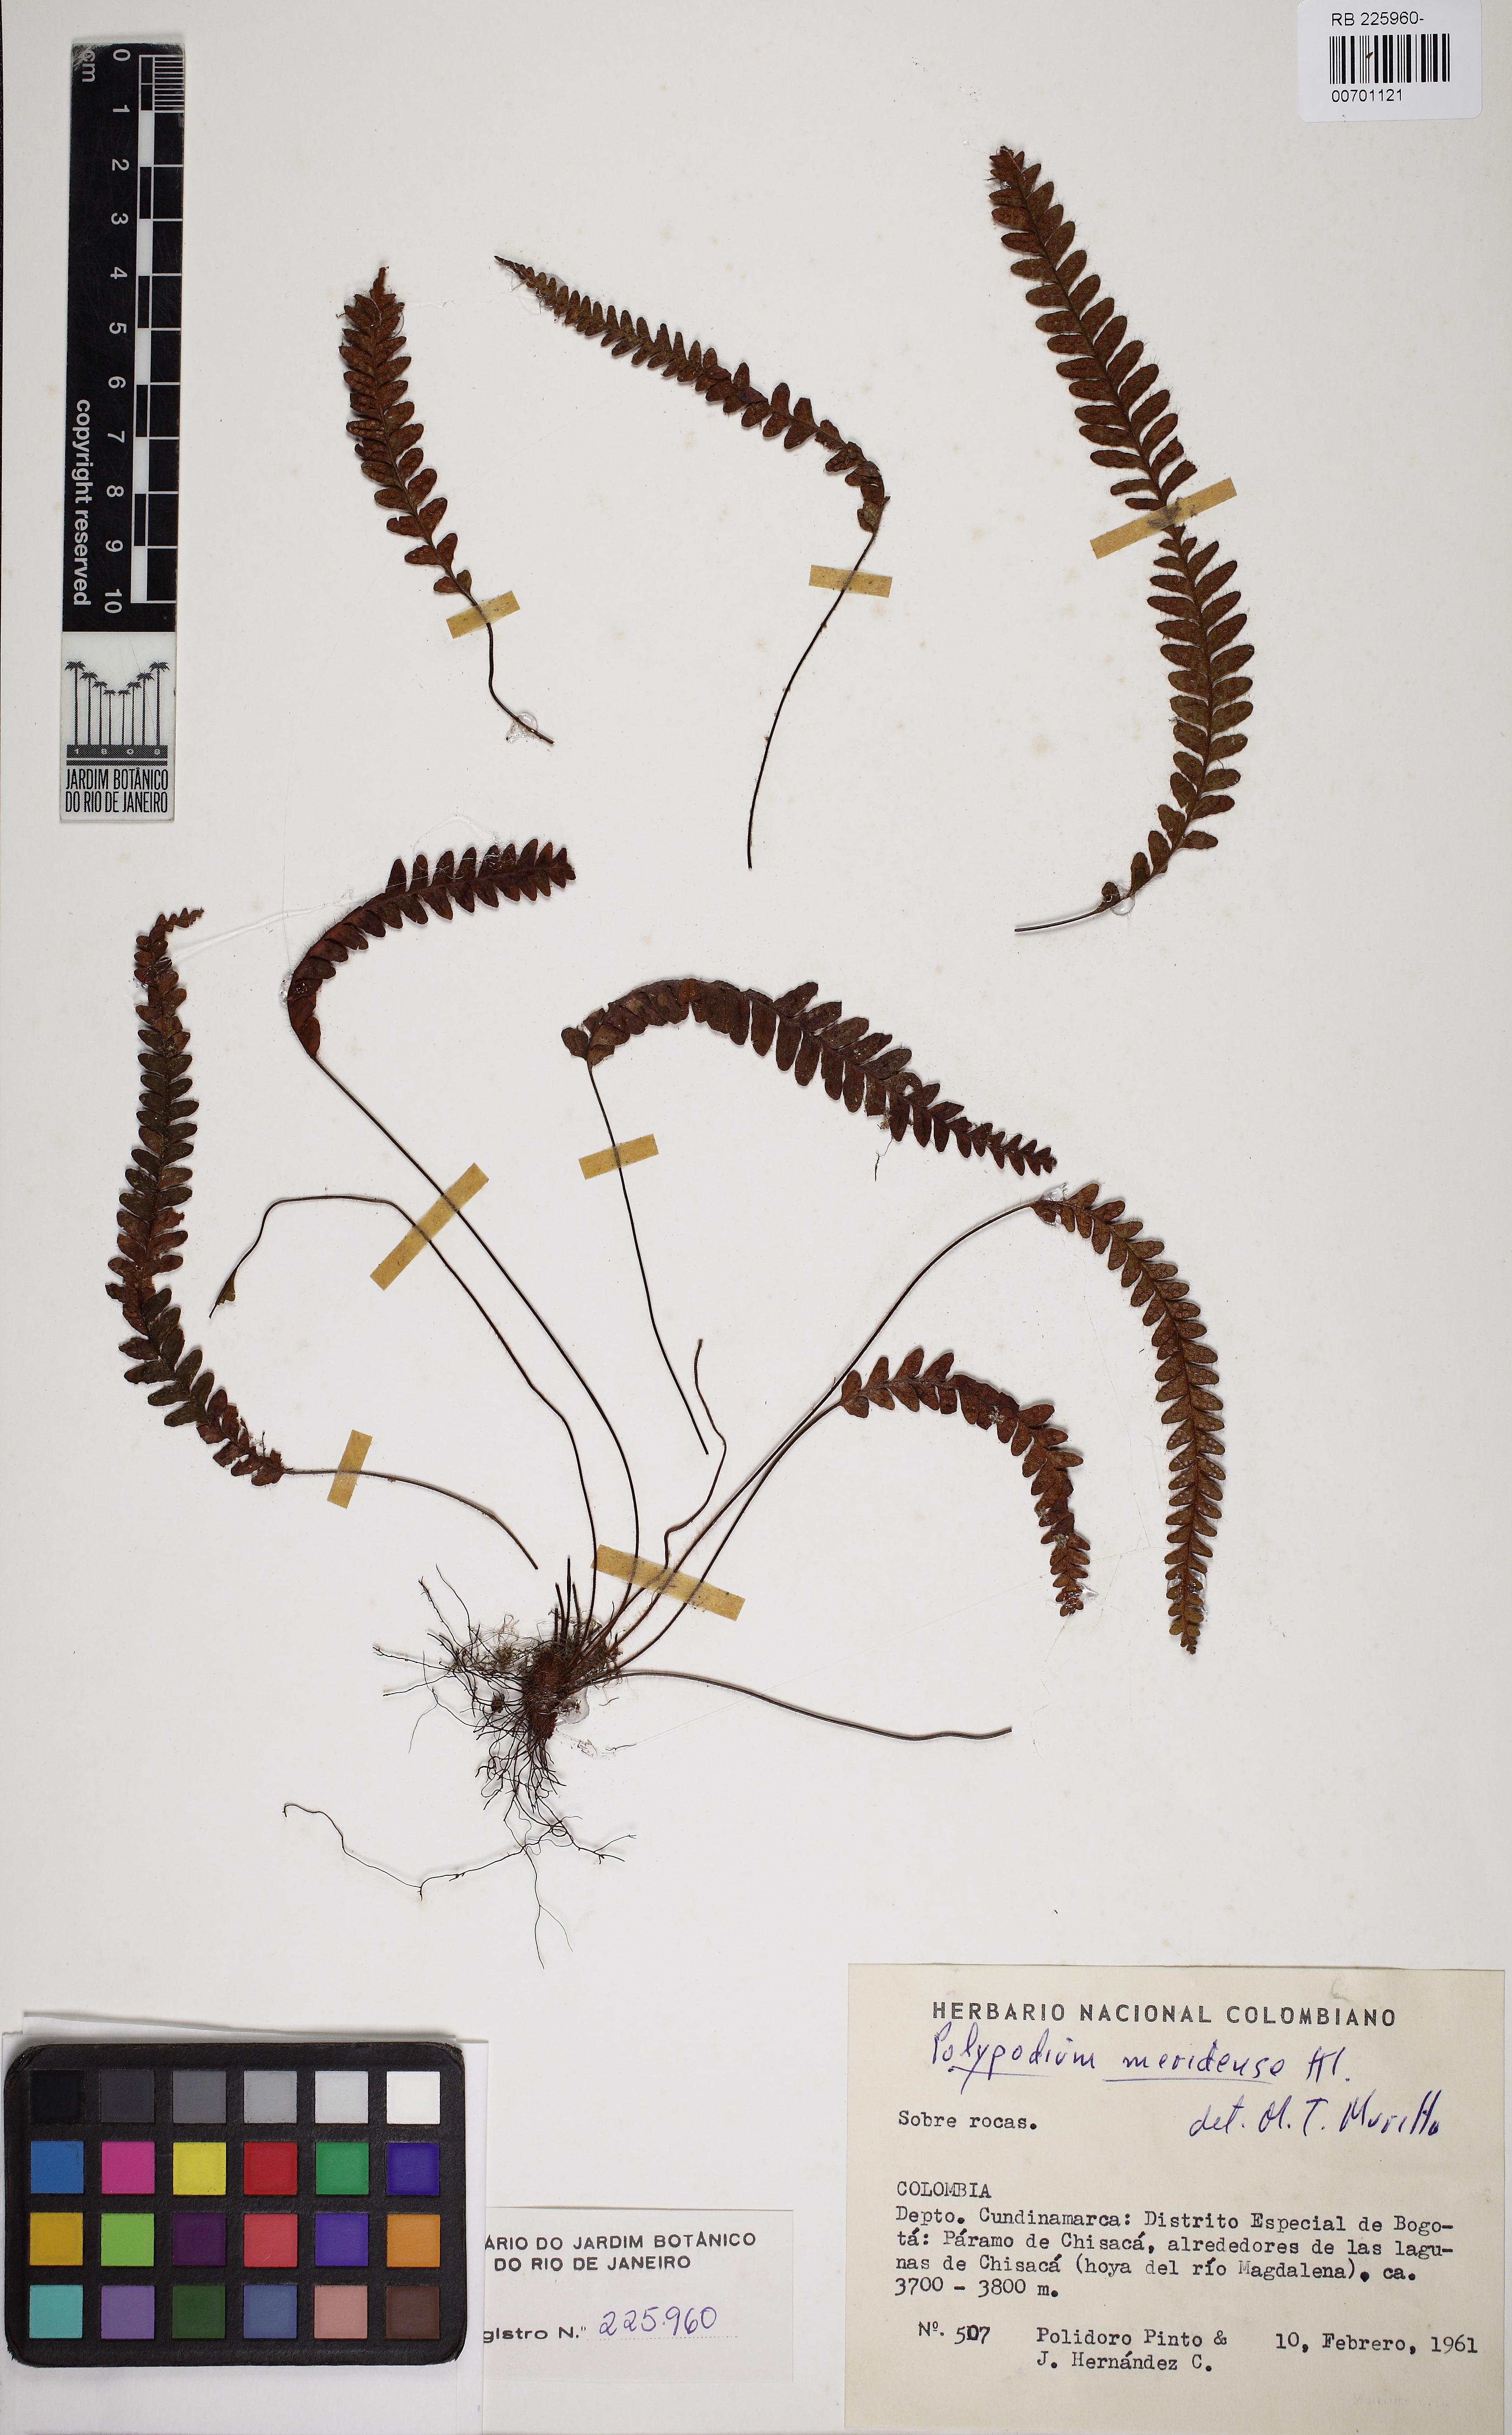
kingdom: Plantae
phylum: Tracheophyta
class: Polypodiopsida
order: Polypodiales
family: Polypodiaceae
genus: Ceradenia
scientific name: Ceradenia meridensis
